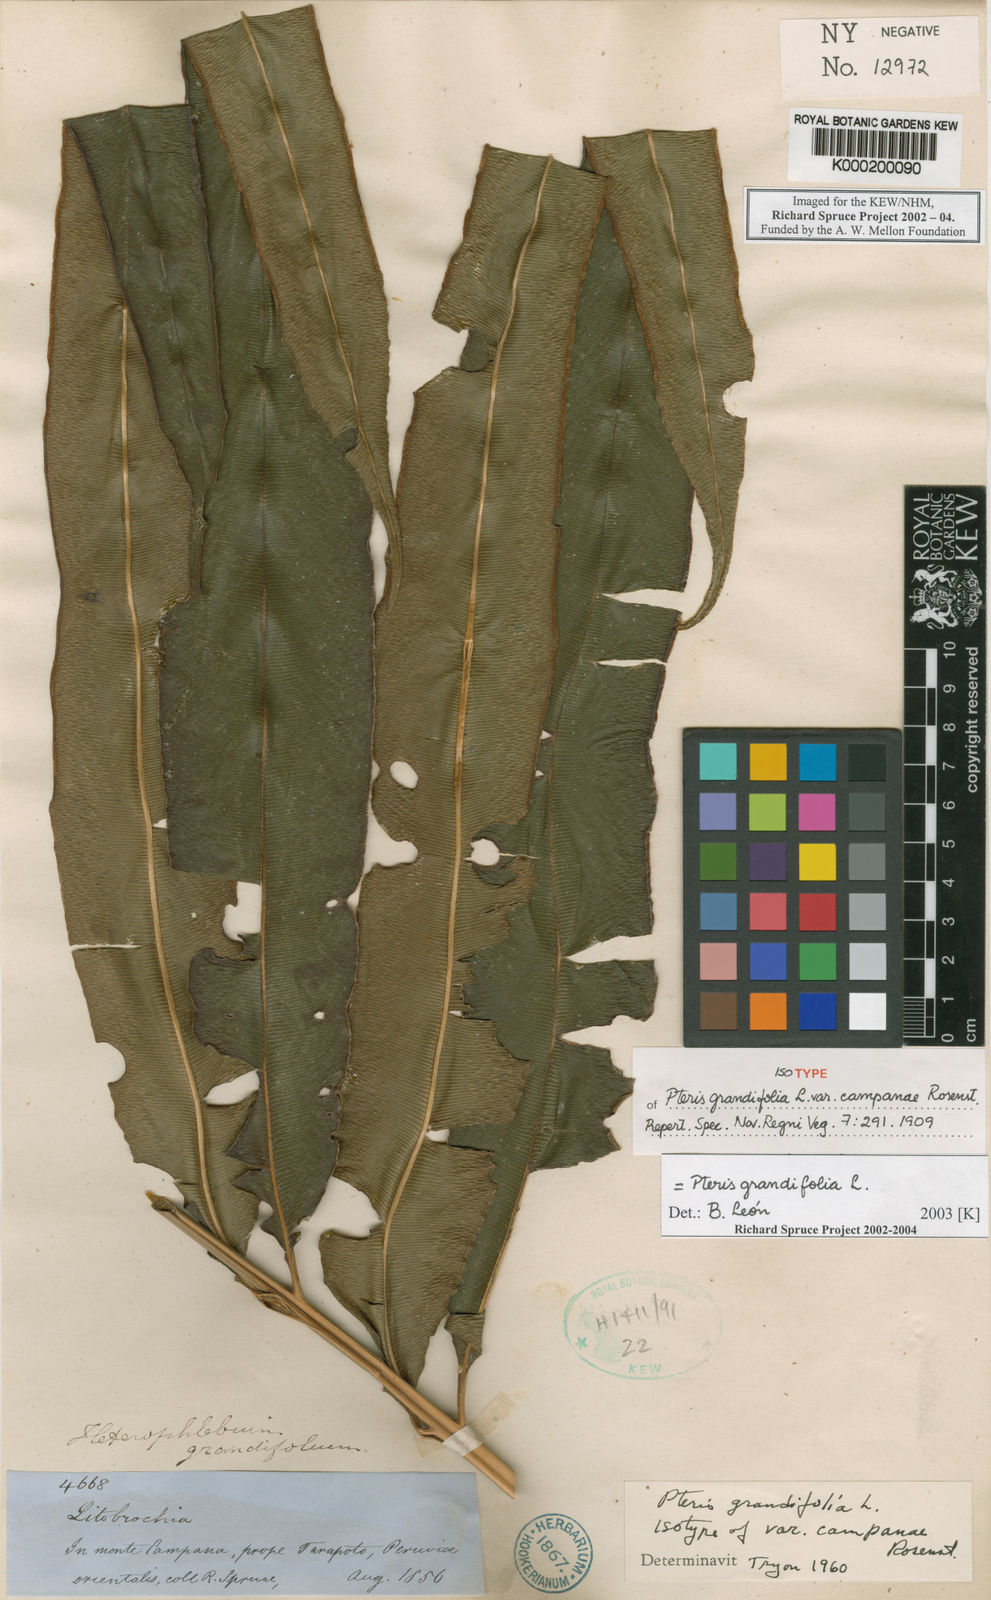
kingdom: Plantae
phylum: Tracheophyta
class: Polypodiopsida
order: Polypodiales
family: Pteridaceae
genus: Pteris
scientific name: Pteris grandifolia
